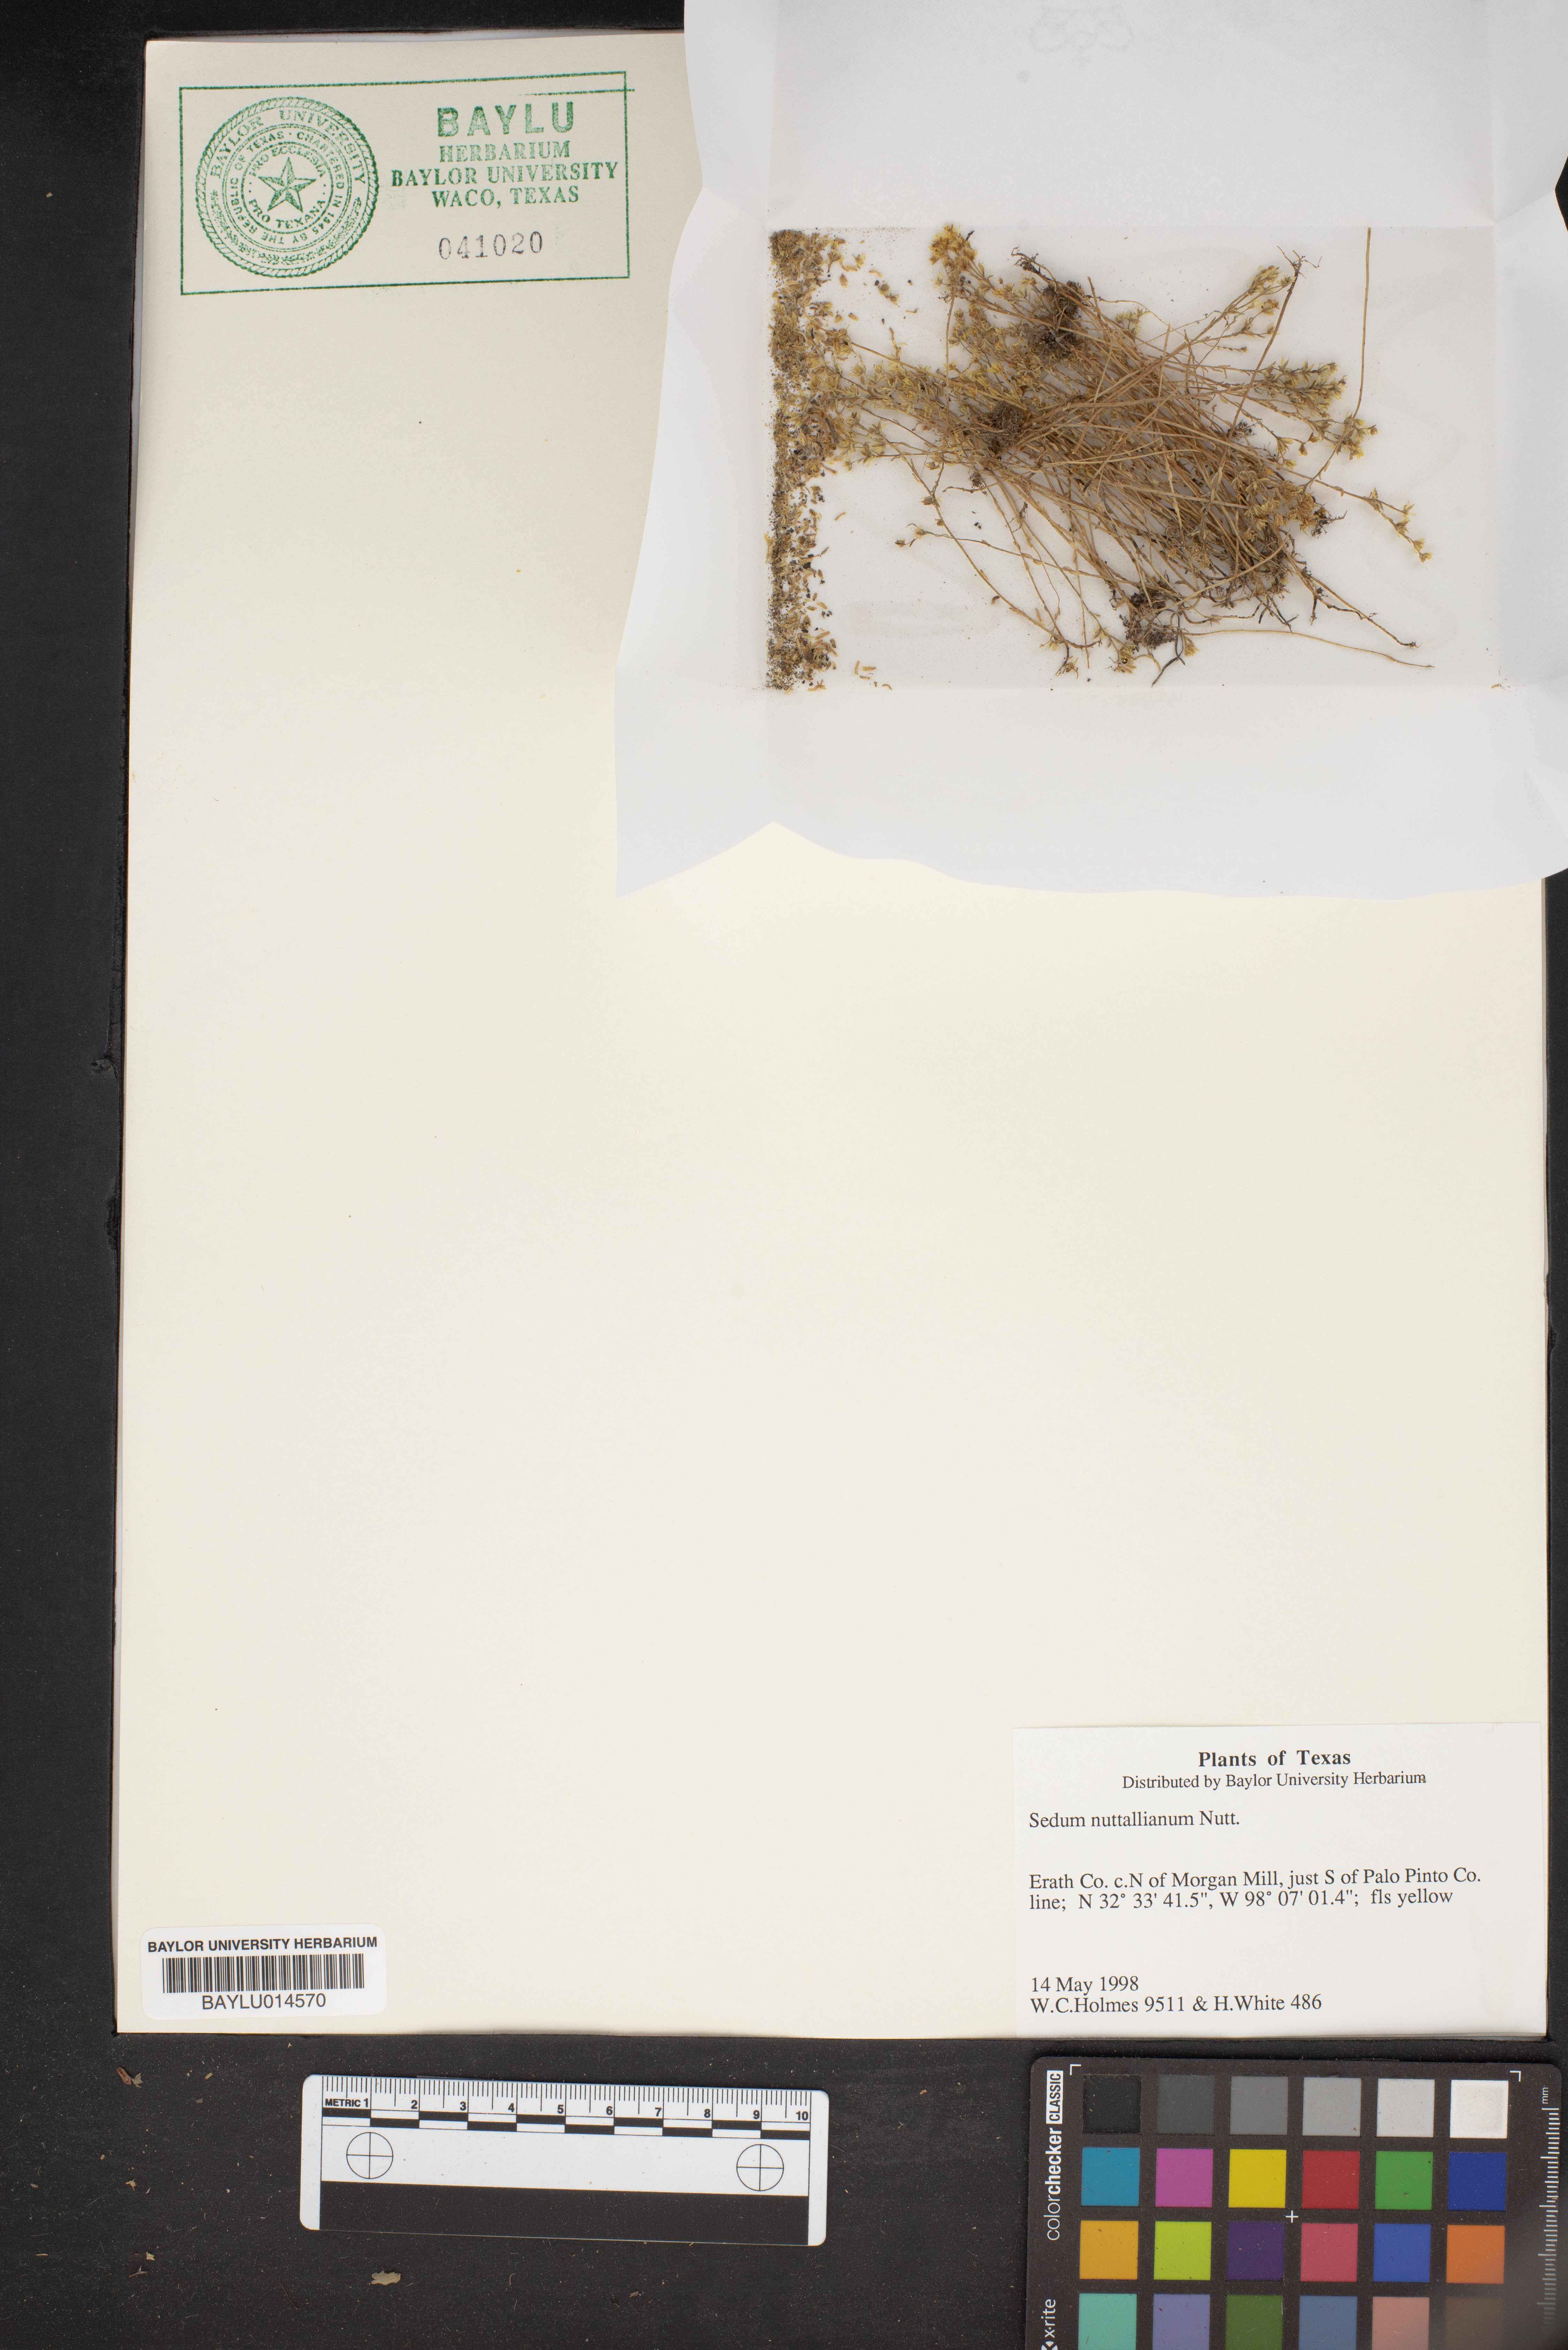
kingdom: Plantae
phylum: Tracheophyta
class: Magnoliopsida
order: Saxifragales
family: Crassulaceae
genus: Sedum
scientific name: Sedum nuttallii
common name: Yellow stonecrop
